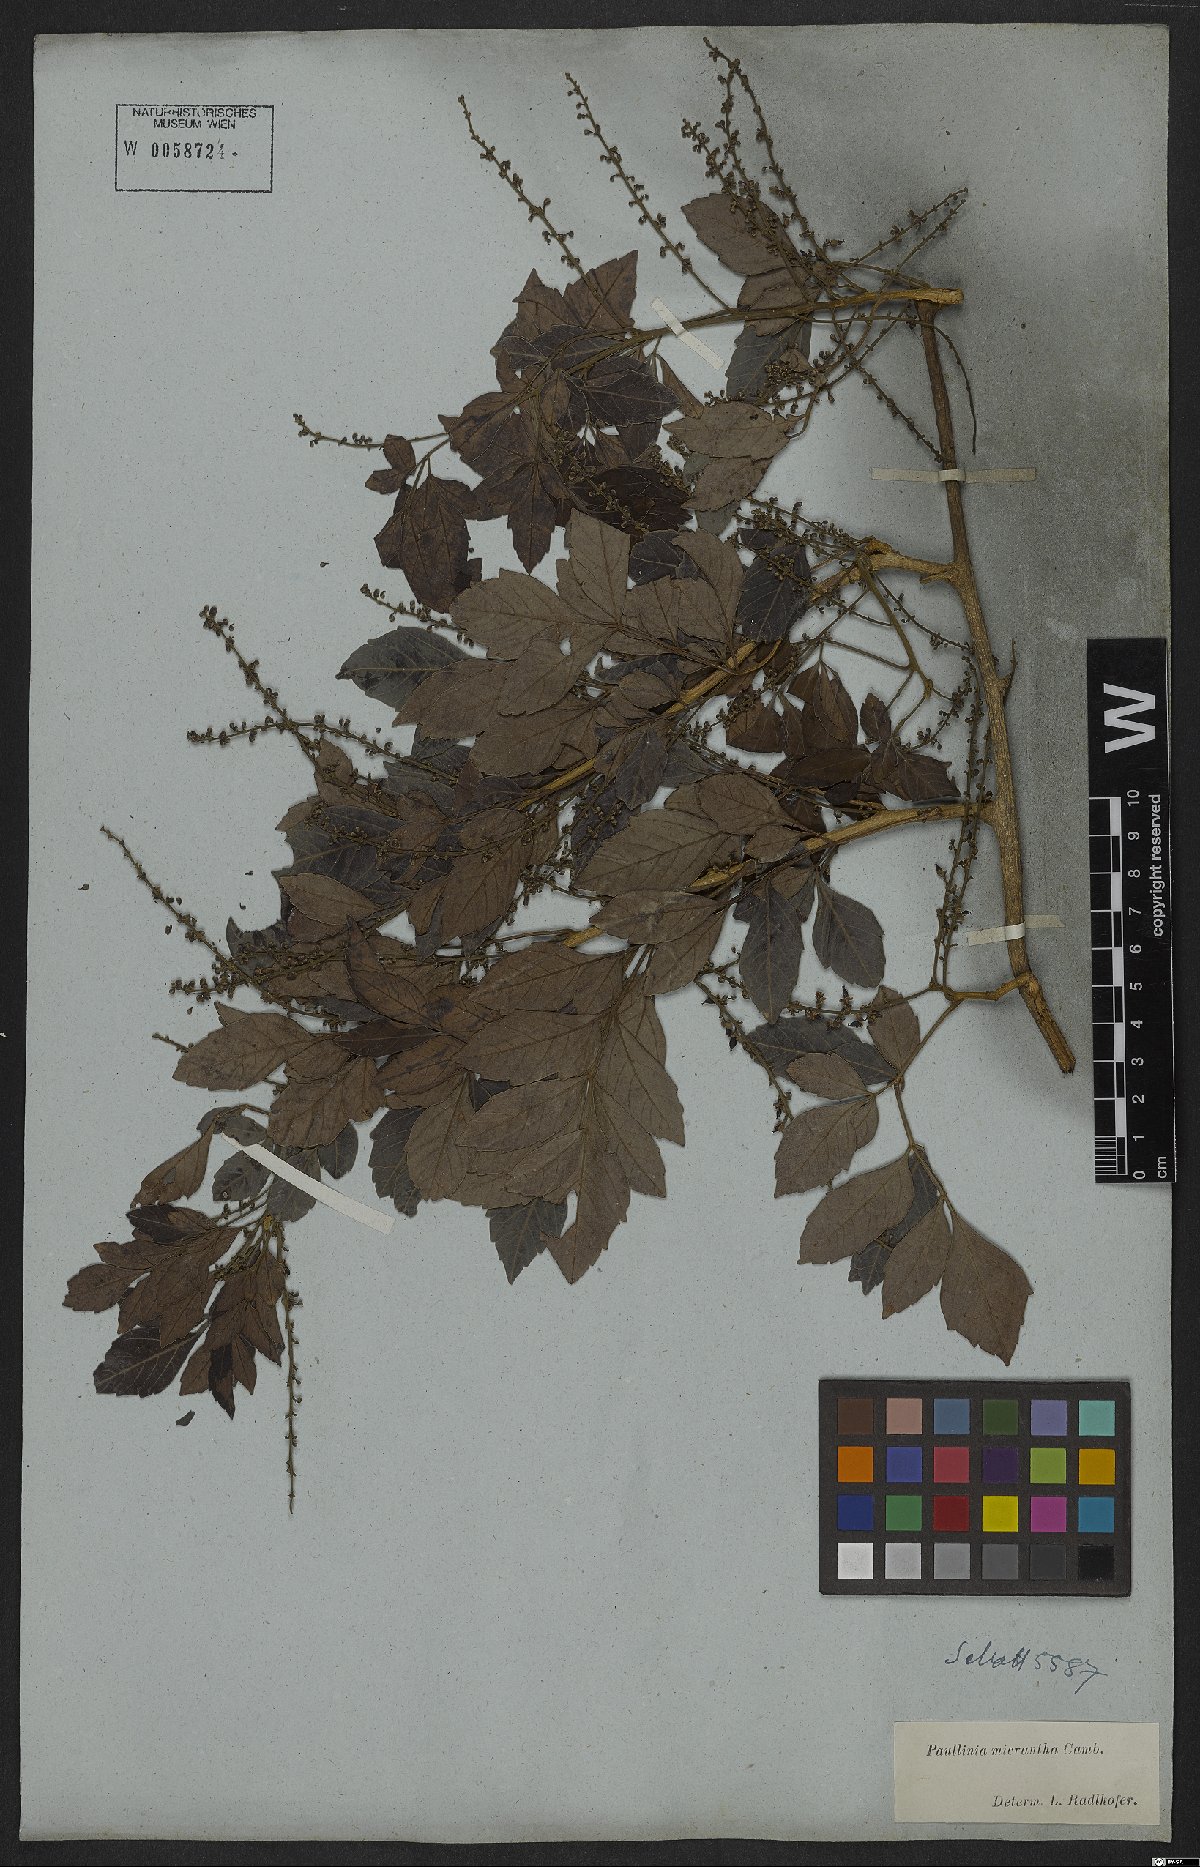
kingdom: Plantae
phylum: Tracheophyta
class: Magnoliopsida
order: Sapindales
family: Sapindaceae
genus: Paullinia
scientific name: Paullinia micrantha
